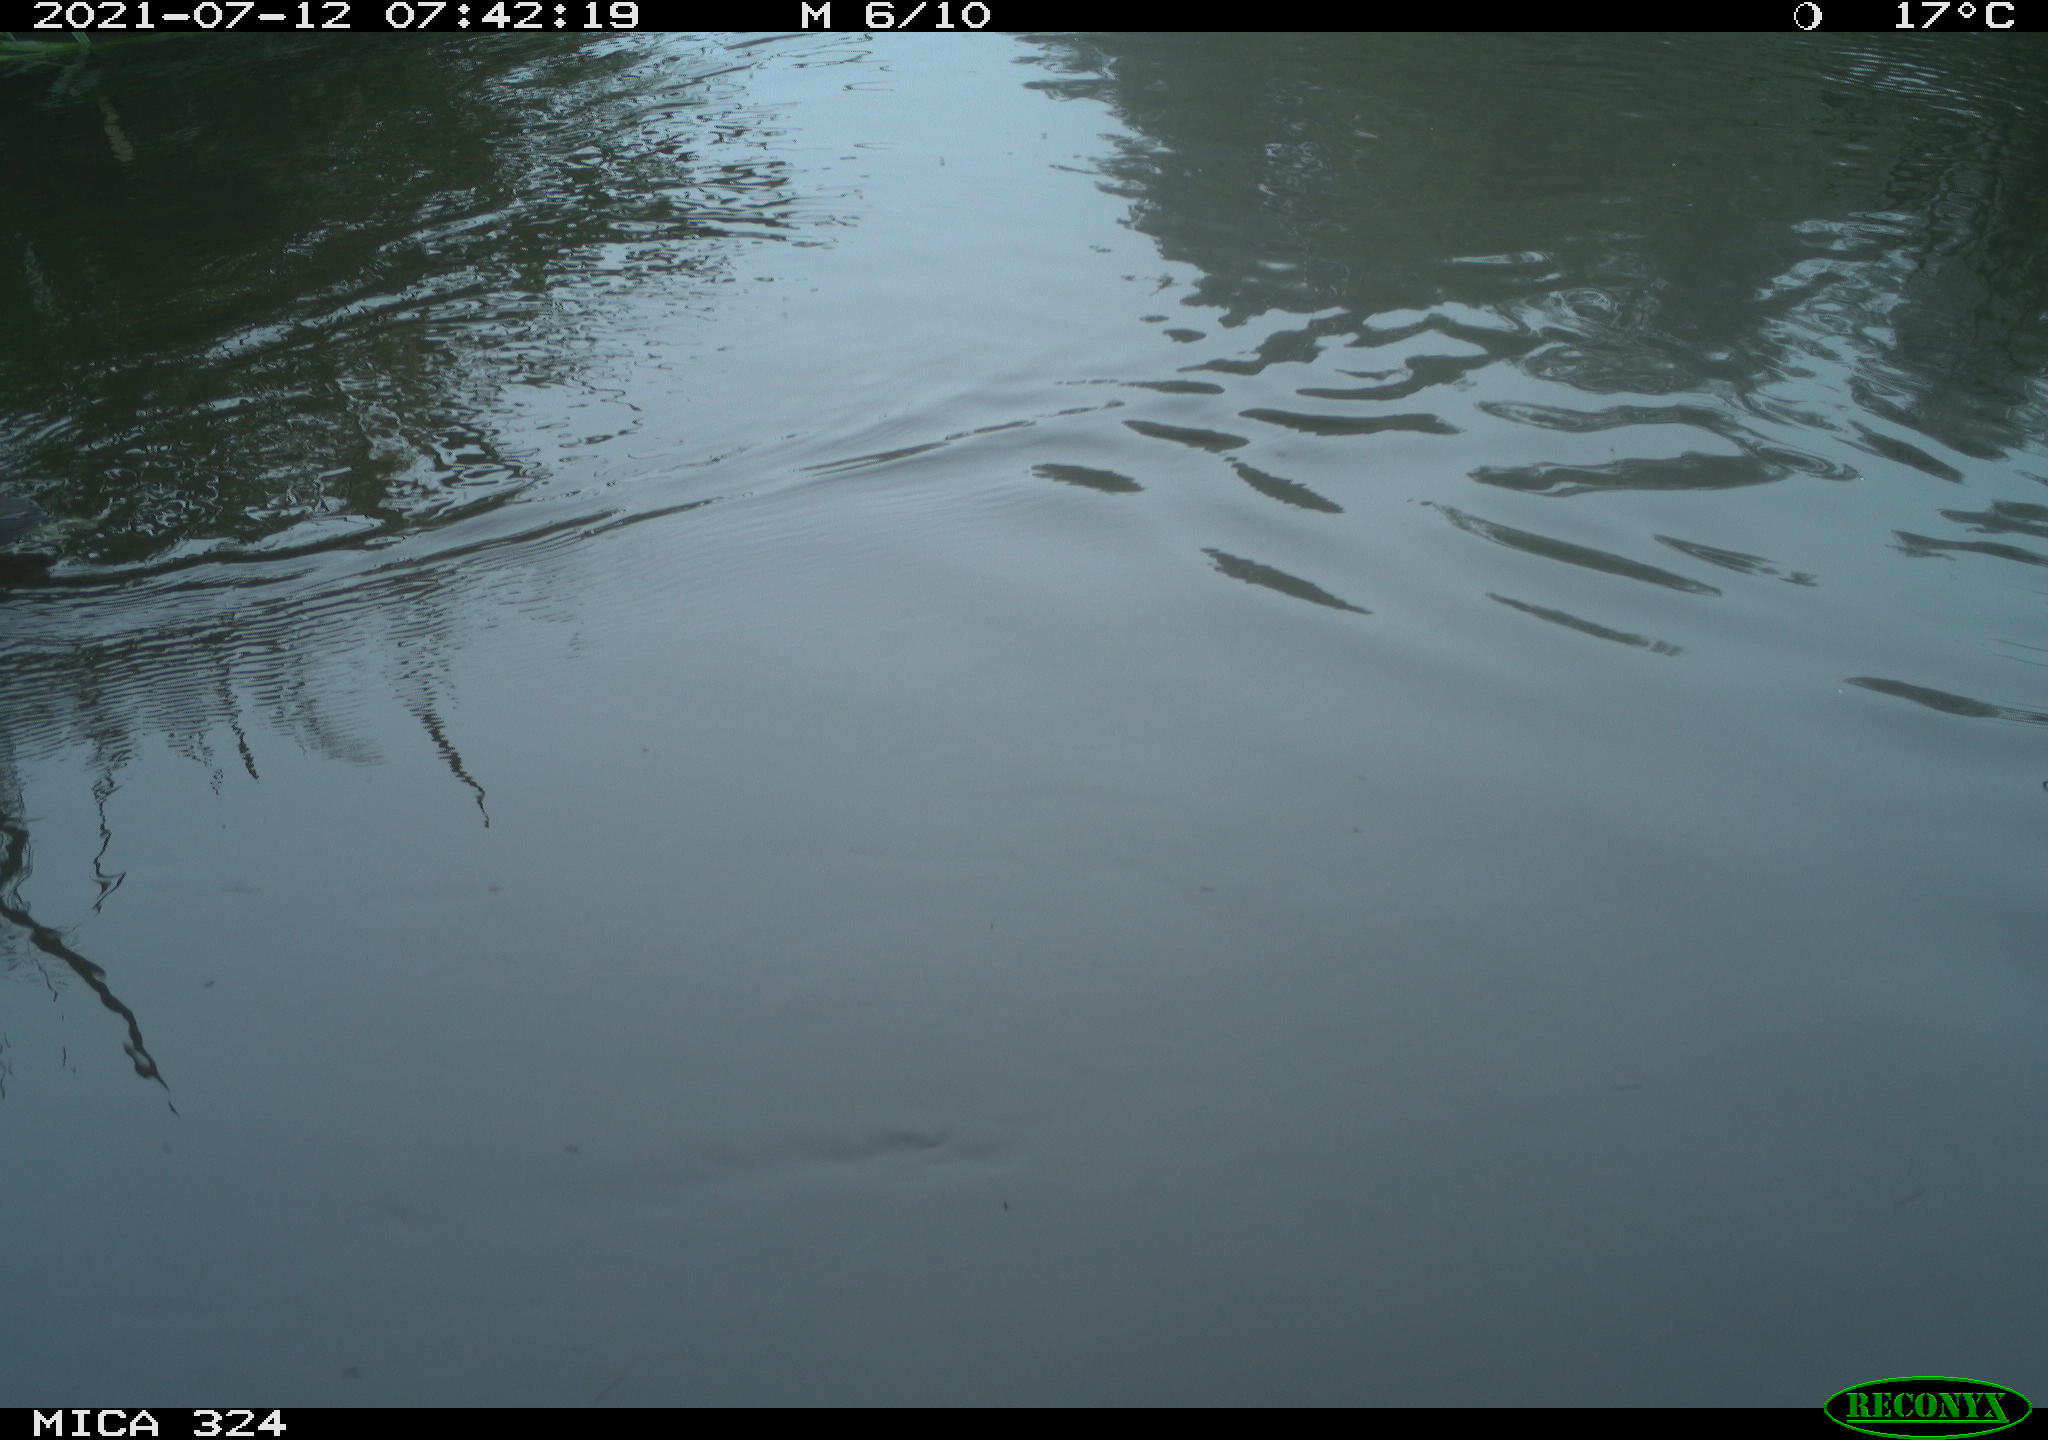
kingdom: Animalia
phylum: Chordata
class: Aves
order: Gruiformes
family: Rallidae
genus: Gallinula
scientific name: Gallinula chloropus
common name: Common moorhen
